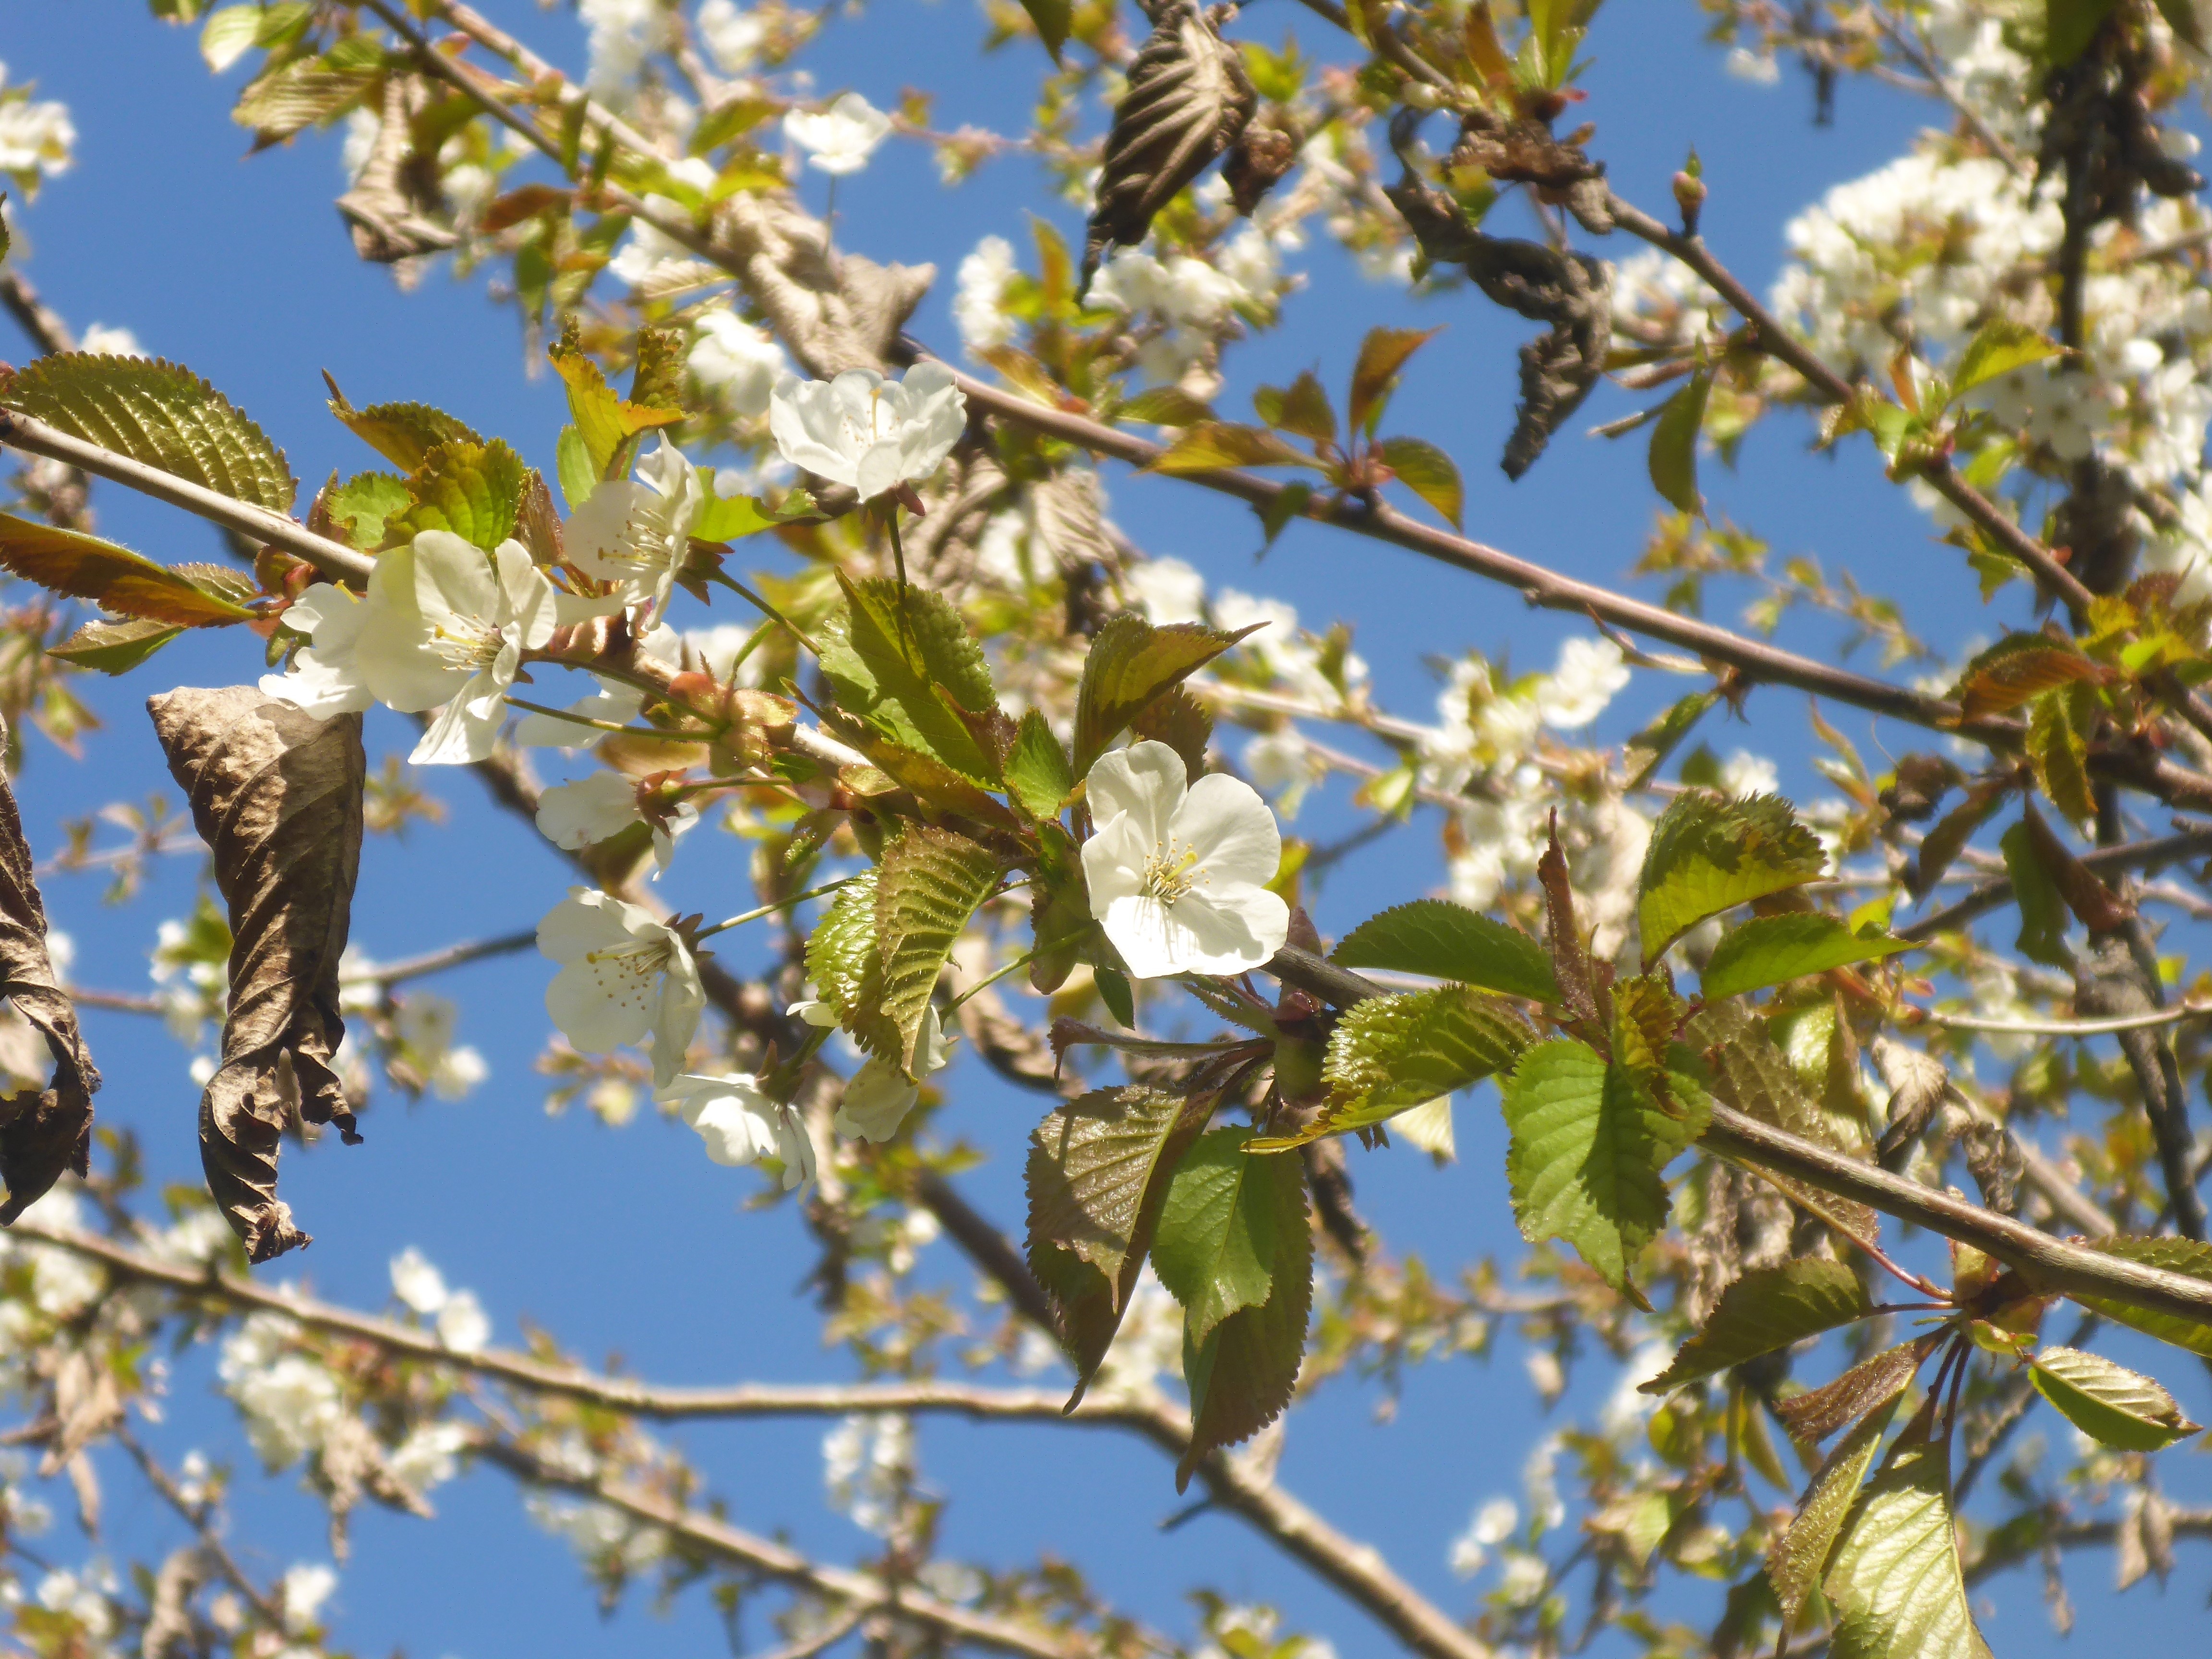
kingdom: Plantae
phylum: Tracheophyta
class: Magnoliopsida
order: Rosales
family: Rosaceae
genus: Prunus
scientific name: Prunus avium
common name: Fugle-kirsebær
